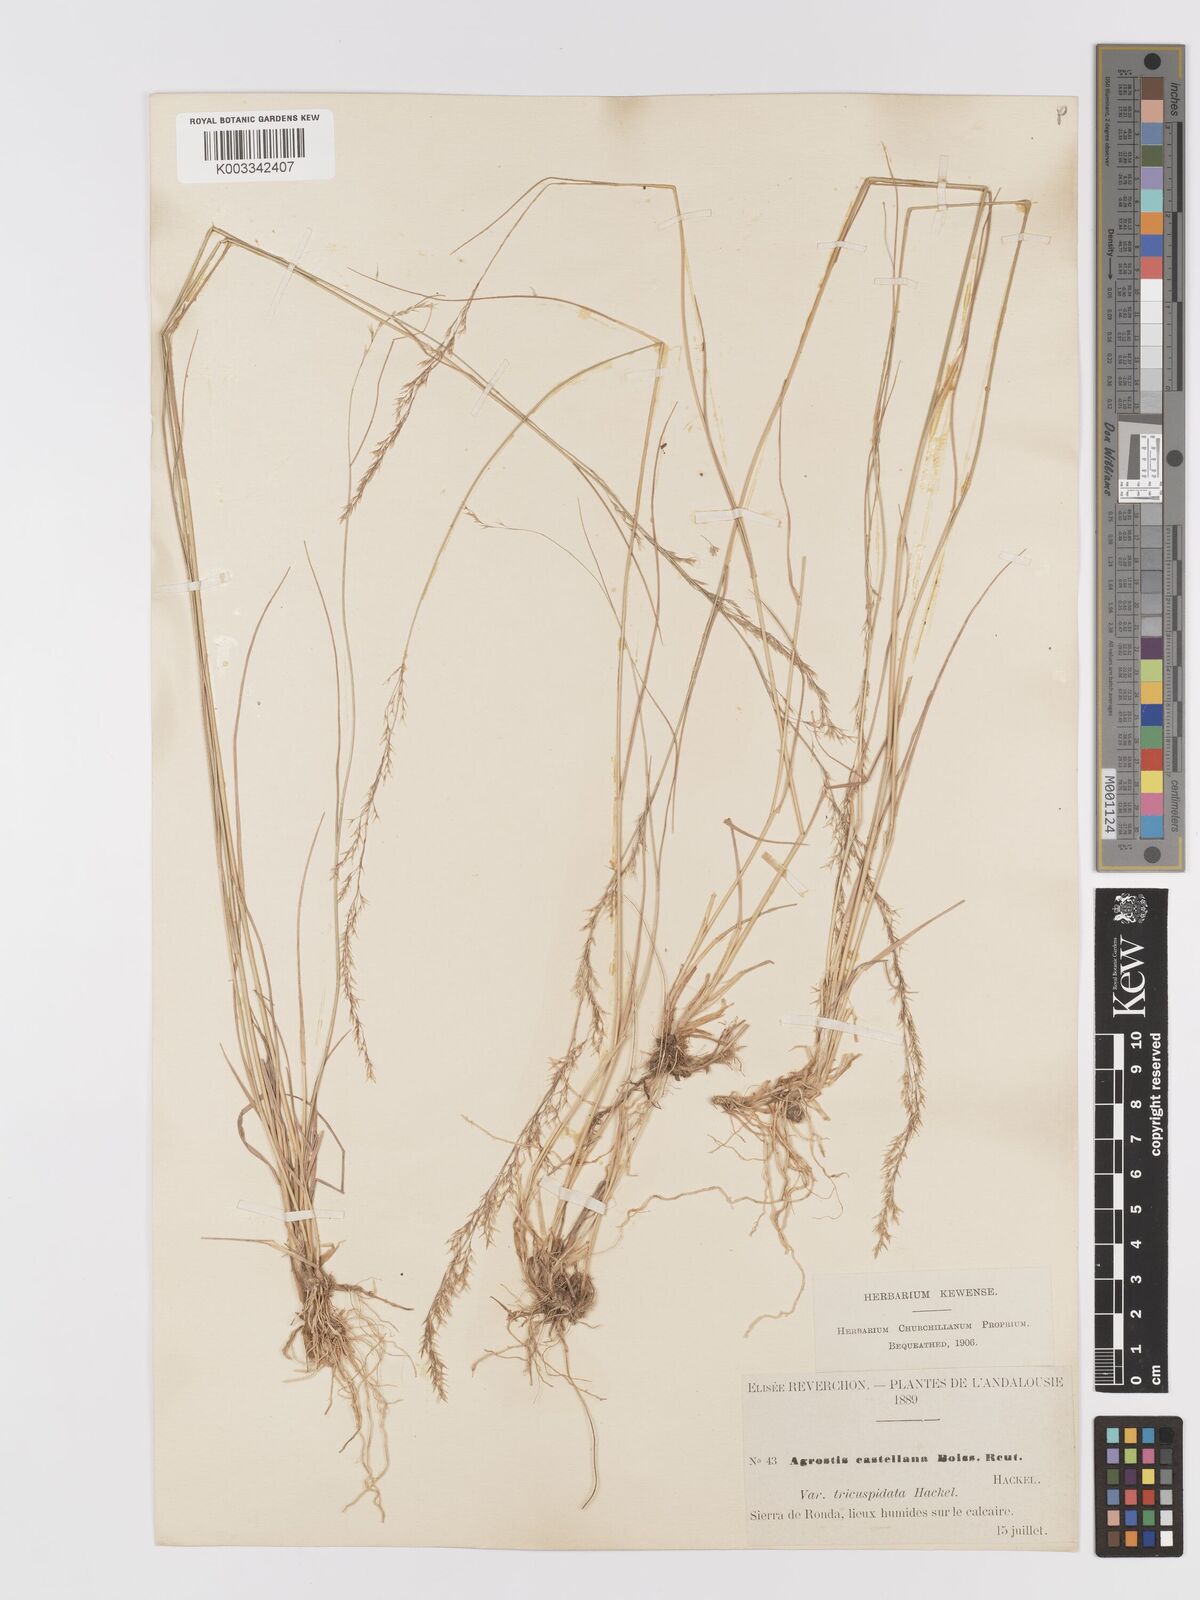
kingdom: Plantae
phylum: Tracheophyta
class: Liliopsida
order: Poales
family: Poaceae
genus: Agrostis
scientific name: Agrostis castellana
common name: Highland bent
